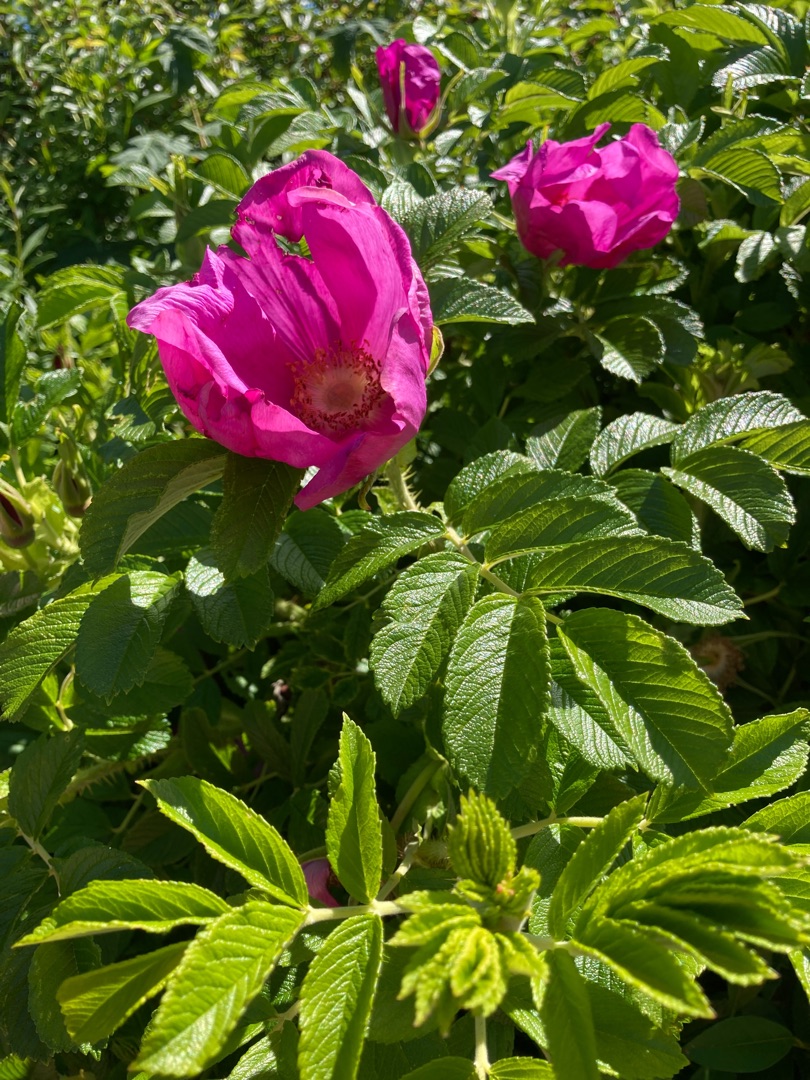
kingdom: Plantae
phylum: Tracheophyta
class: Magnoliopsida
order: Rosales
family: Rosaceae
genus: Rosa
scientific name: Rosa rugosa
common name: Rynket rose
